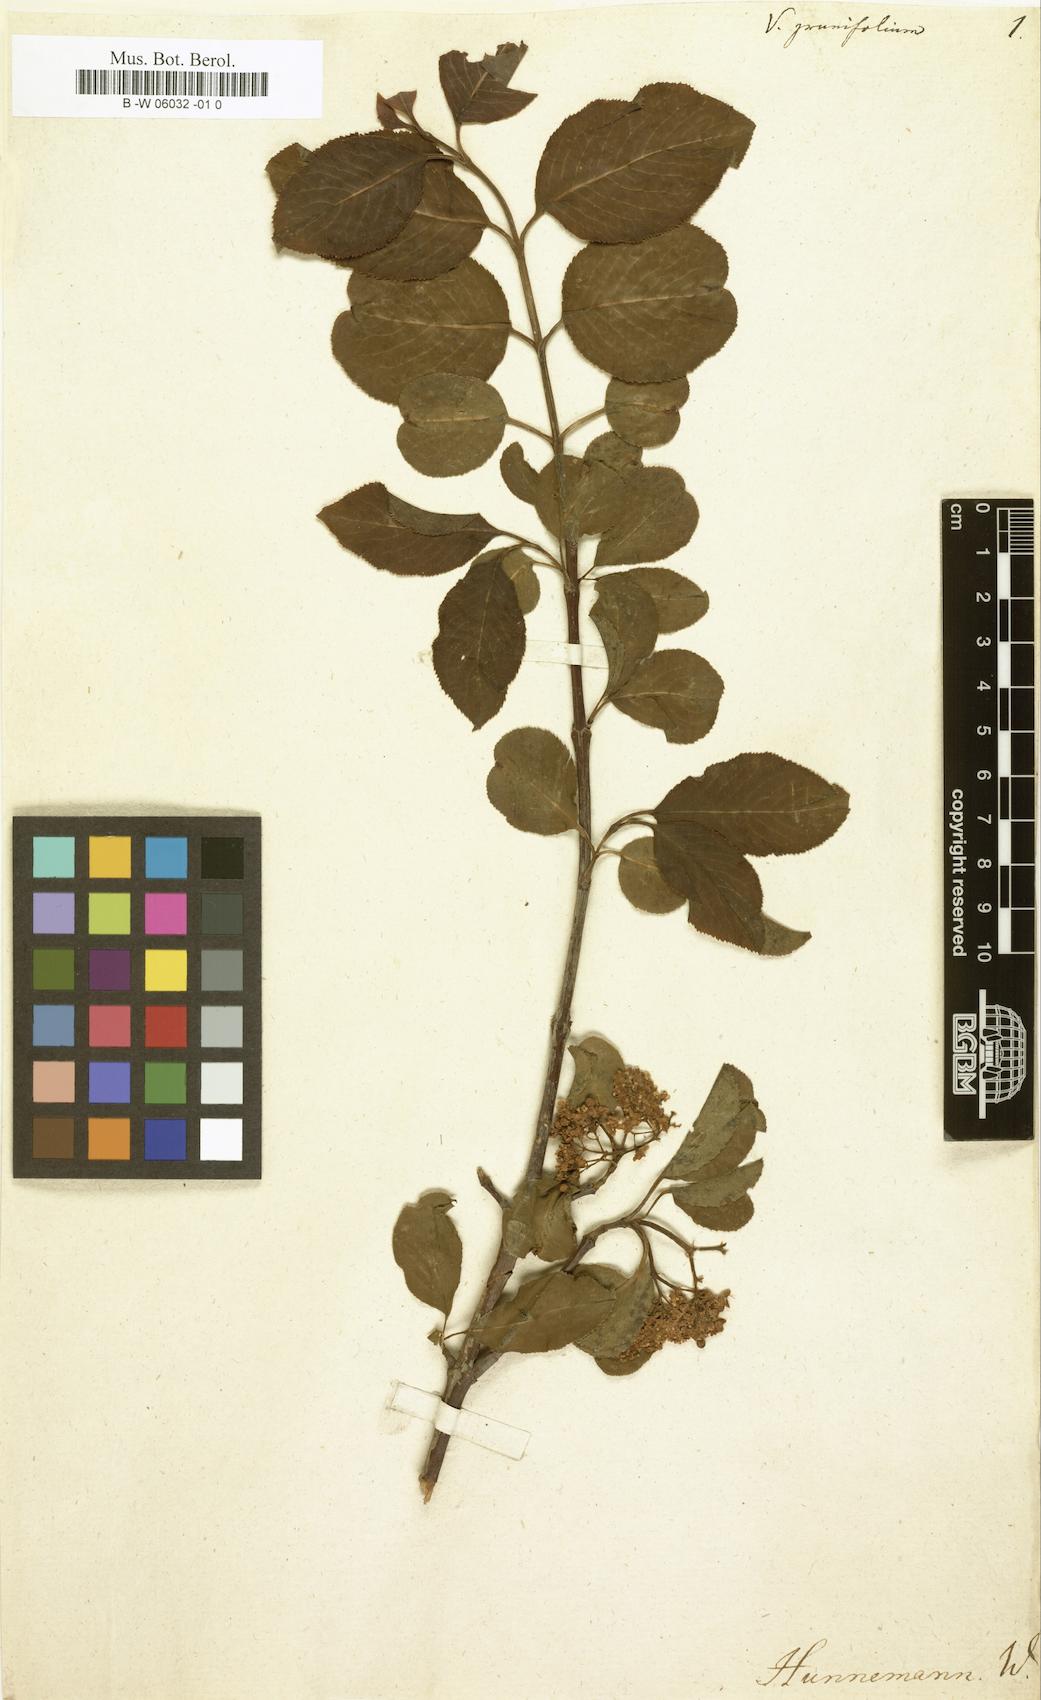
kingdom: Plantae
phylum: Tracheophyta
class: Magnoliopsida
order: Dipsacales
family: Viburnaceae
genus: Viburnum
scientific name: Viburnum prunifolium
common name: Black haw
